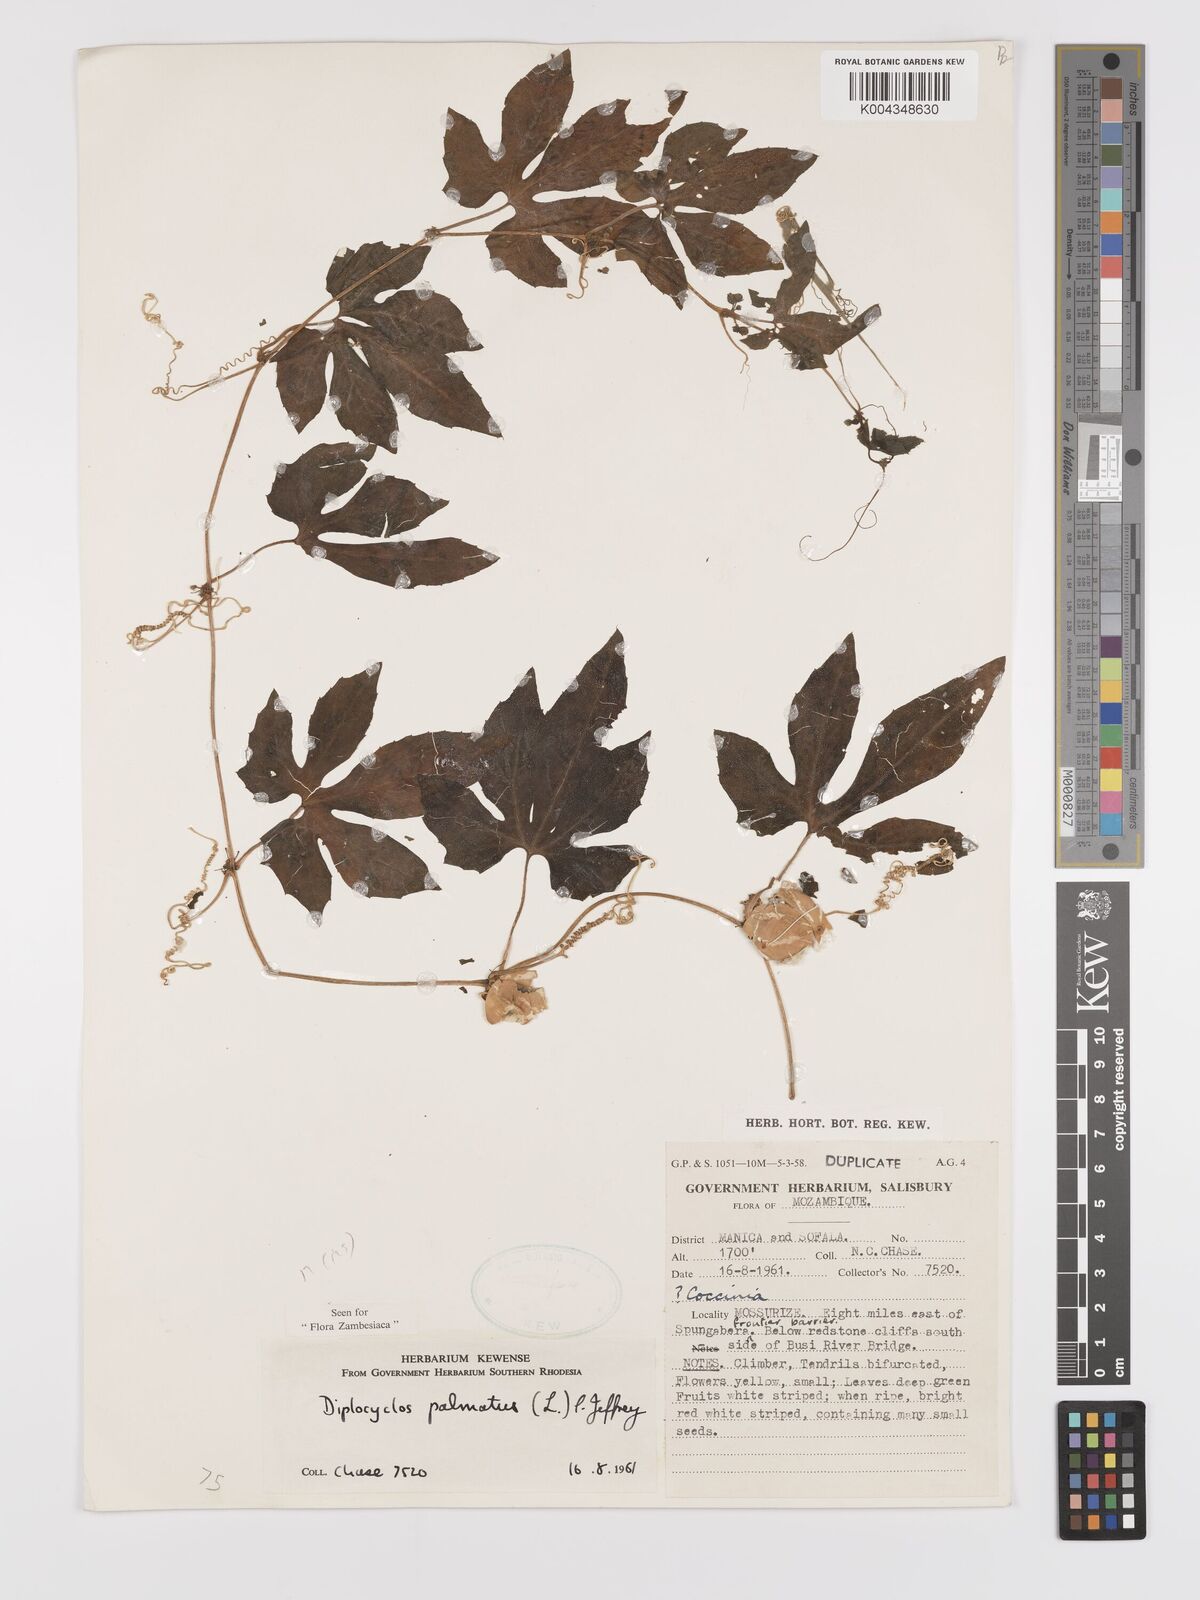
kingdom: Plantae
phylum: Tracheophyta
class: Magnoliopsida
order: Cucurbitales
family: Cucurbitaceae
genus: Diplocyclos
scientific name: Diplocyclos palmatus
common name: Striped-cucumber
